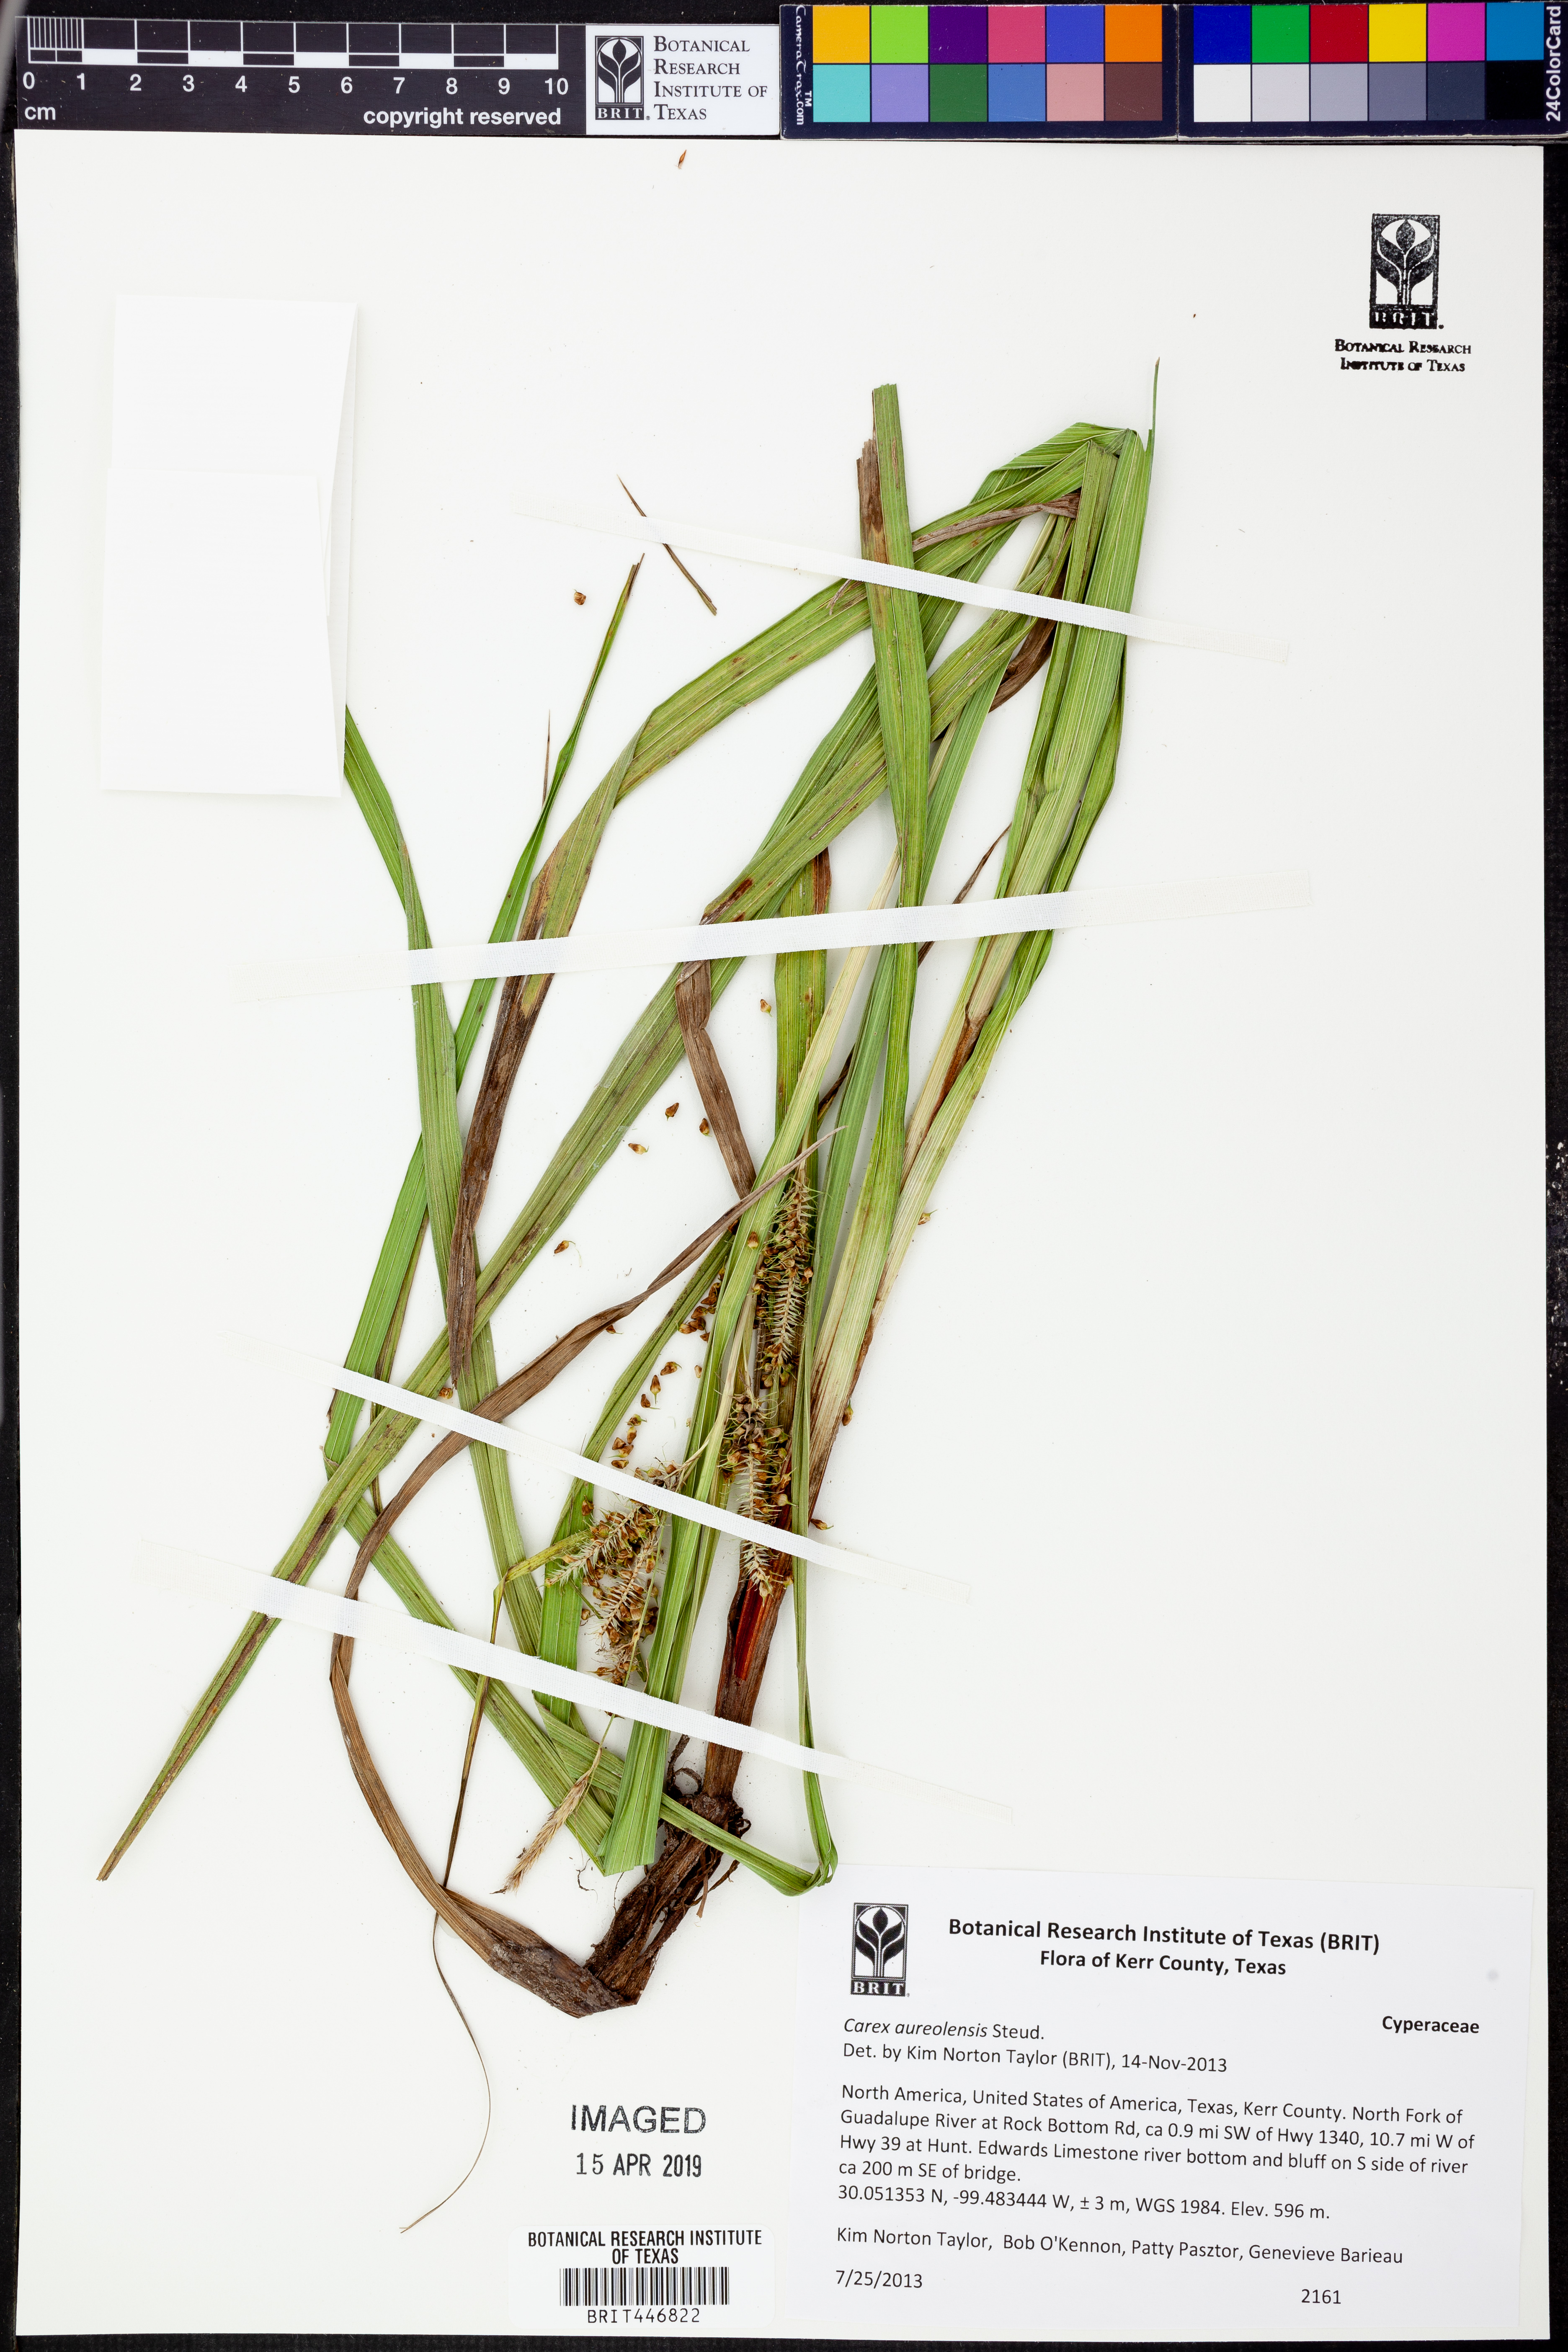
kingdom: Plantae
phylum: Tracheophyta
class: Liliopsida
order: Poales
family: Cyperaceae
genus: Carex
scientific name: Carex aureolensis
